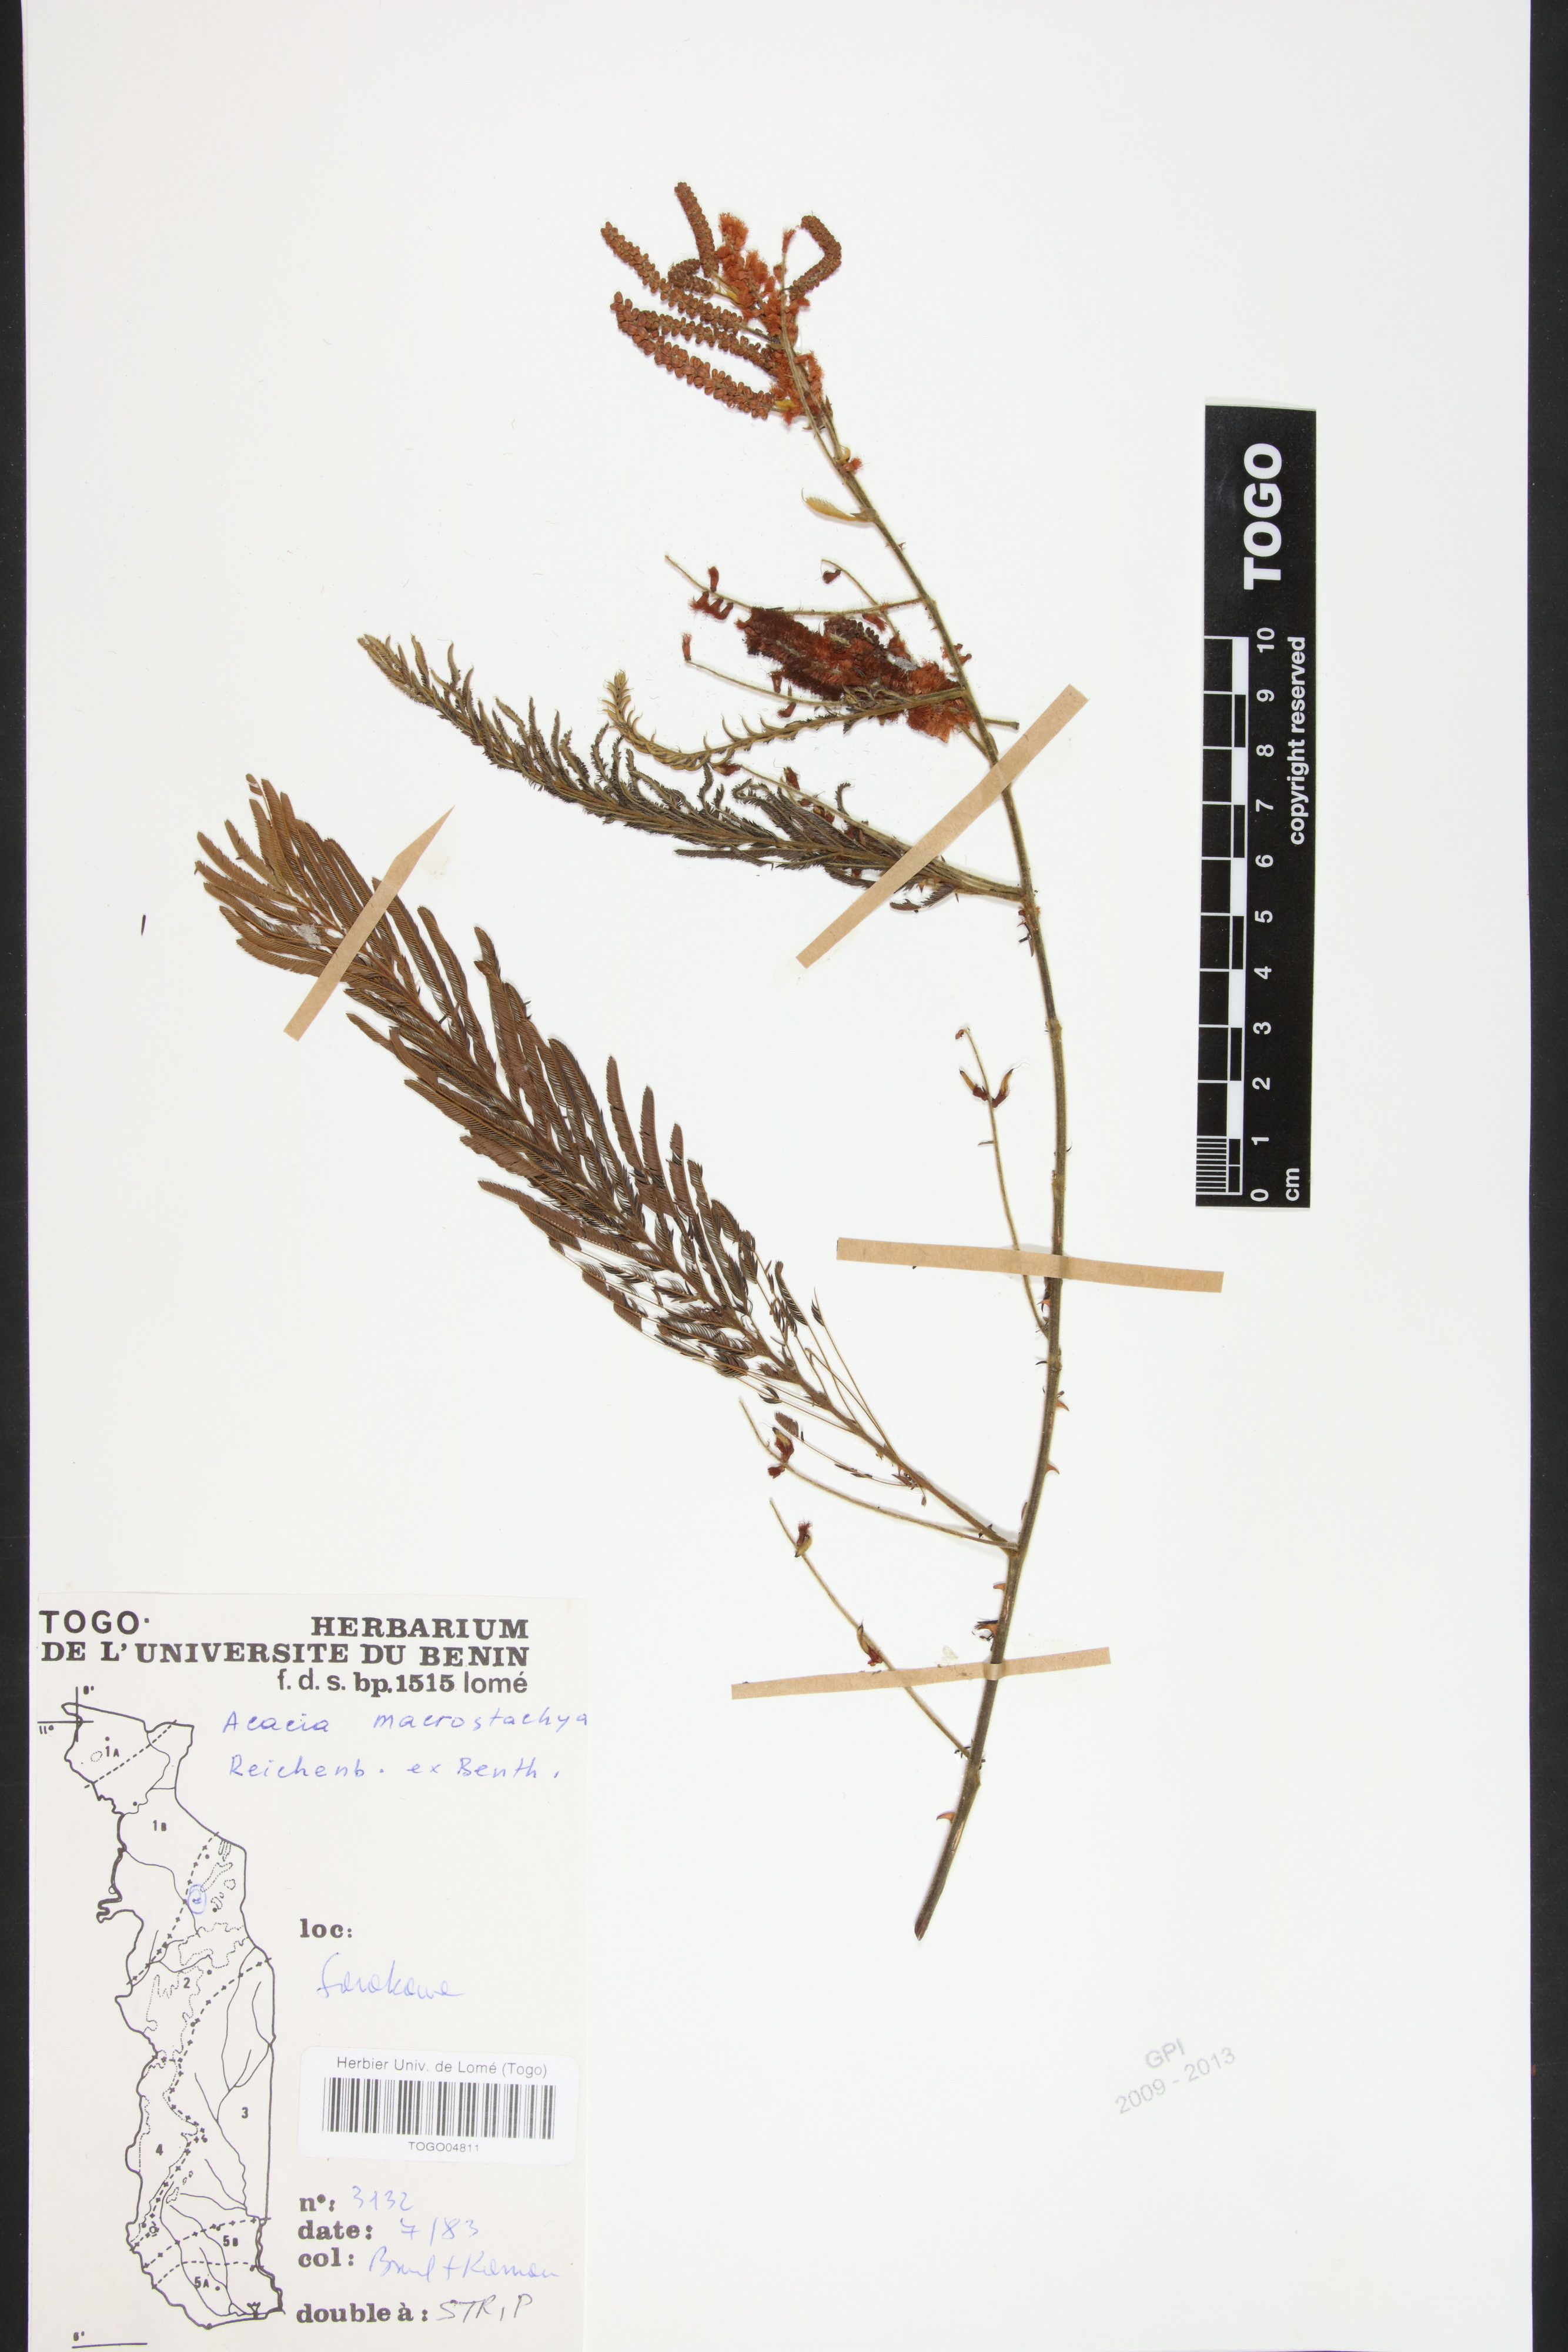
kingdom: Plantae
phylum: Tracheophyta
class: Magnoliopsida
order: Fabales
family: Fabaceae
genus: Senegalia
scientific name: Senegalia macrostachya
